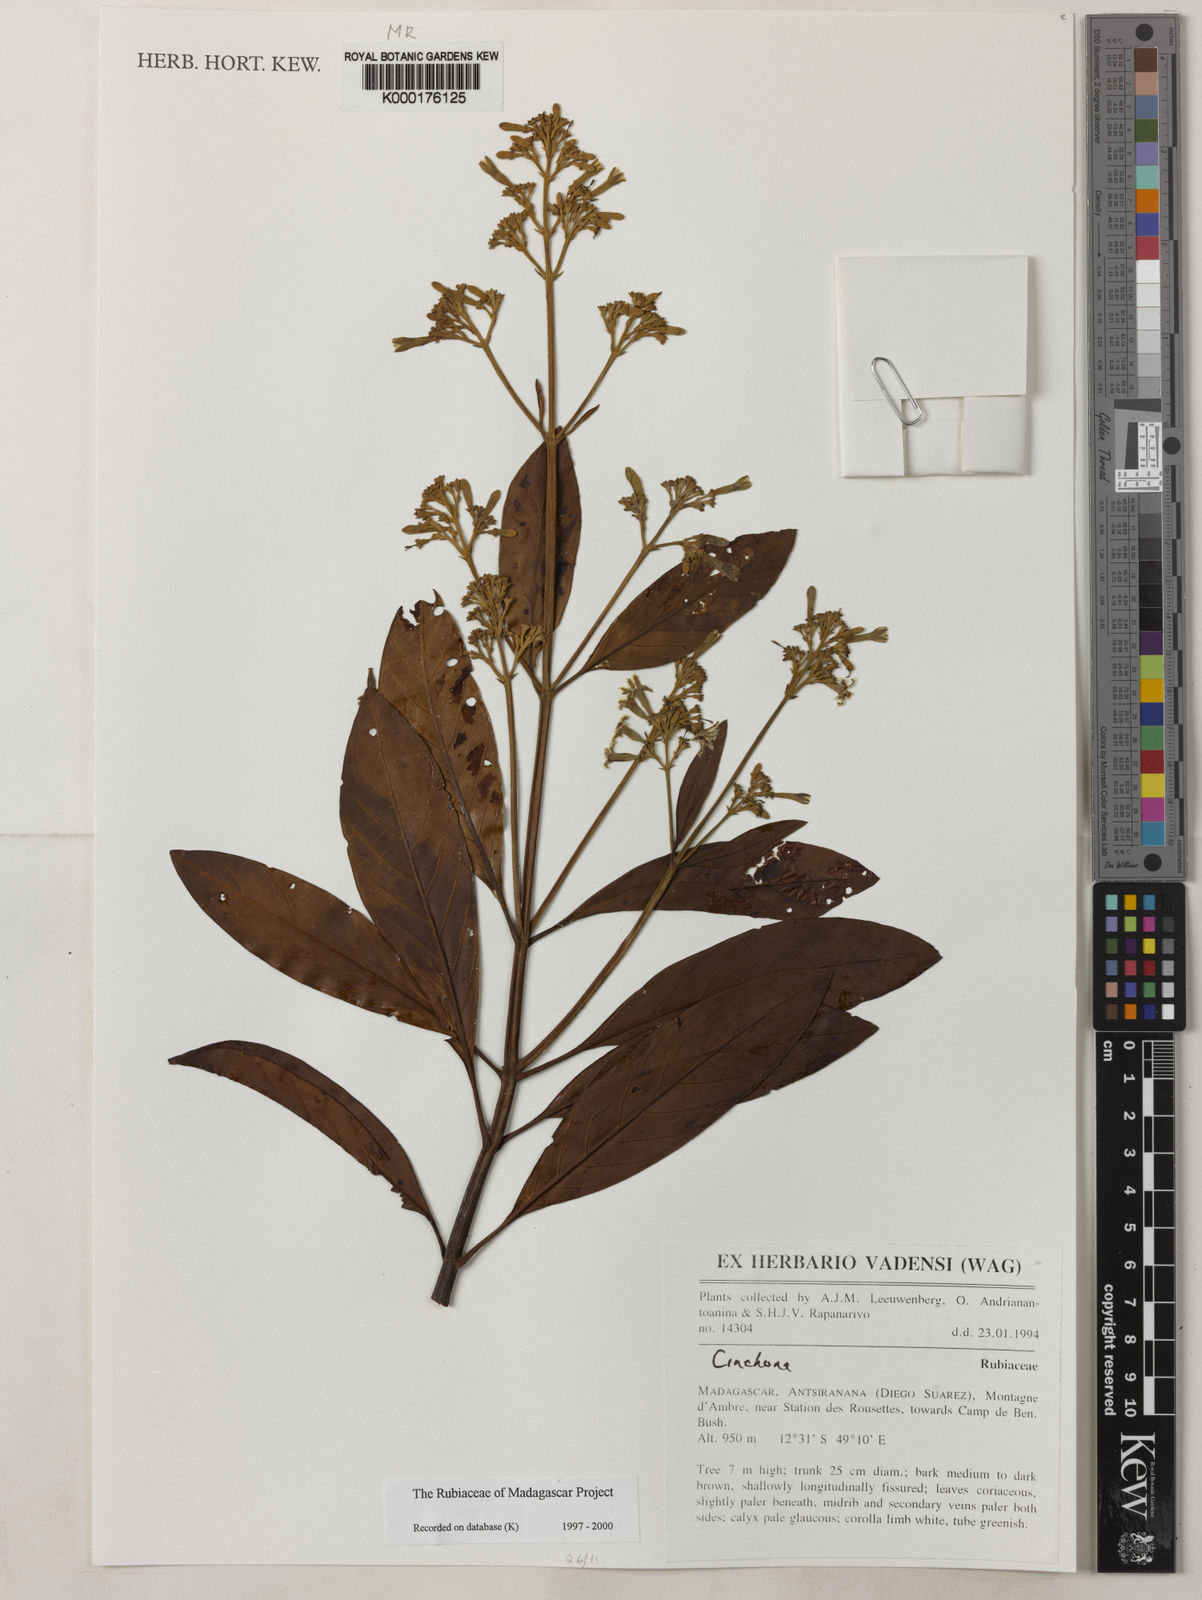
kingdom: Plantae
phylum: Tracheophyta
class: Magnoliopsida
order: Gentianales
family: Rubiaceae
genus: Cinchona
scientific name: Cinchona
